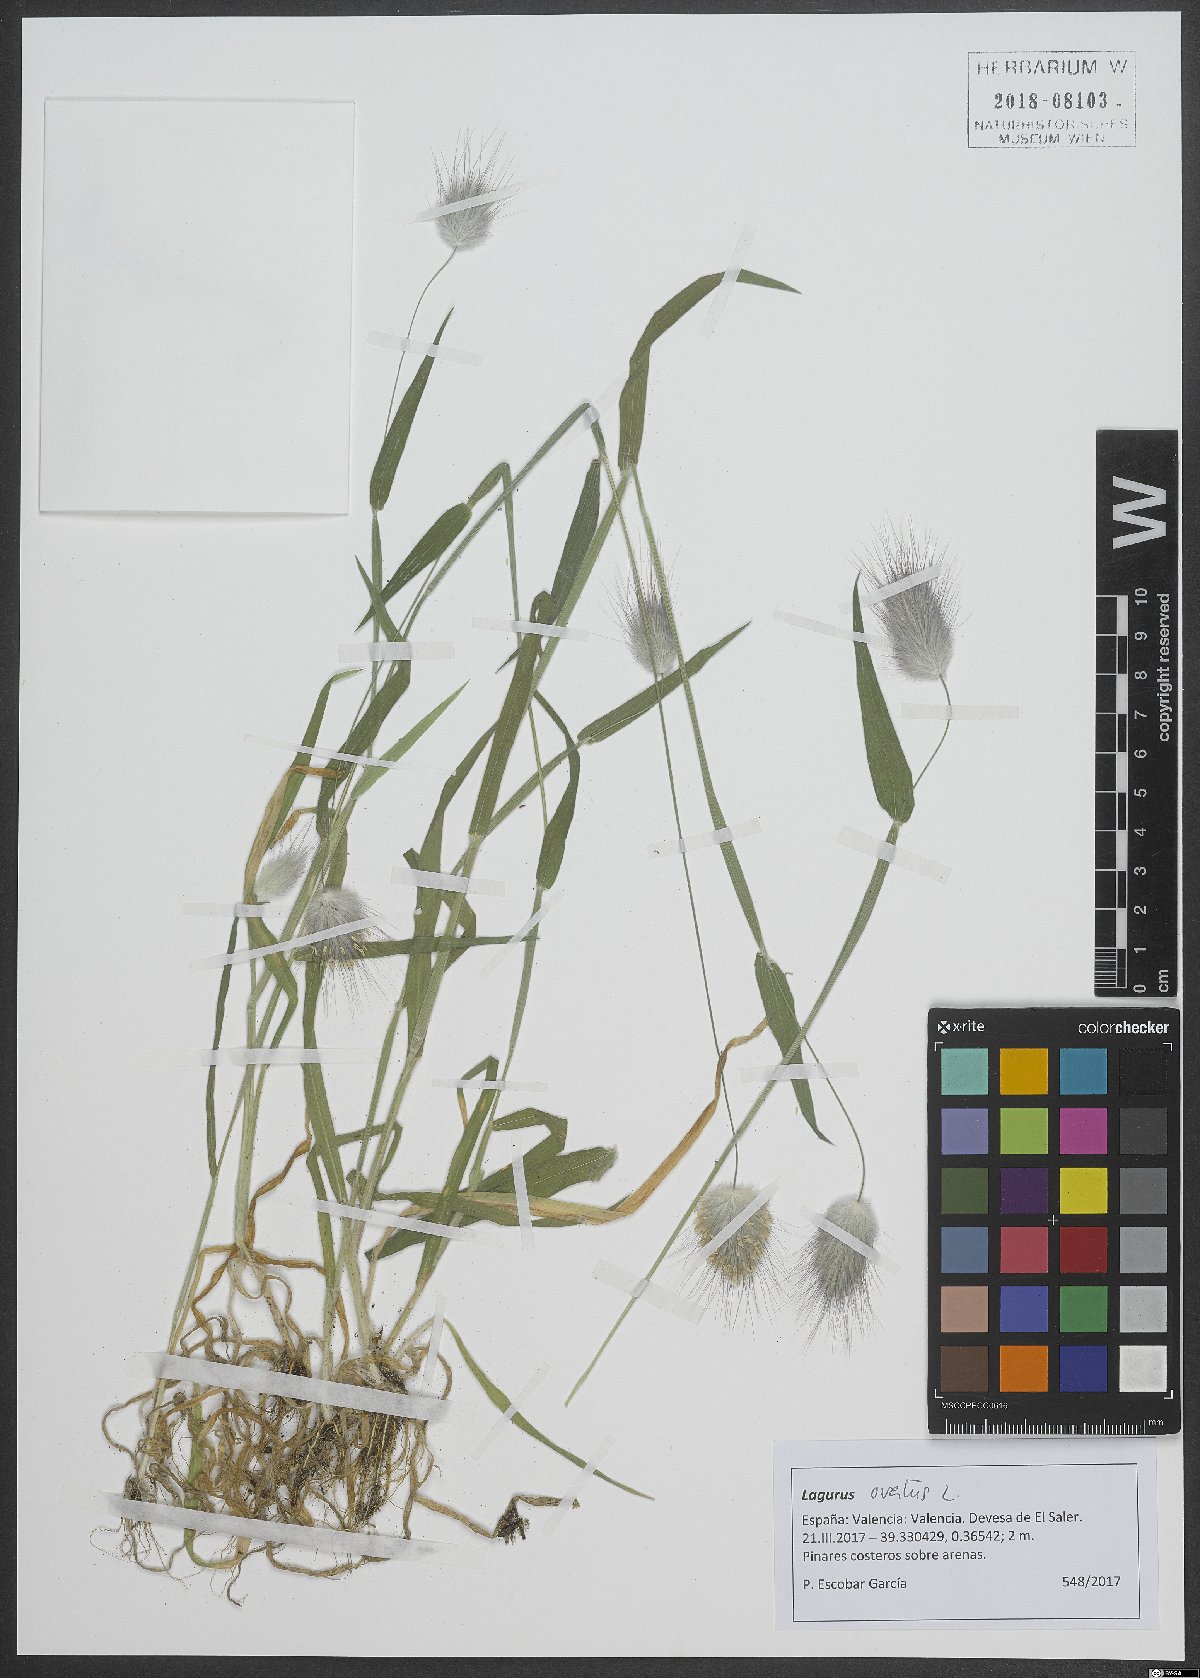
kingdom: Plantae
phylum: Tracheophyta
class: Liliopsida
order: Poales
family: Poaceae
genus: Lagurus
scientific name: Lagurus ovatus
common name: Hare's-tail
